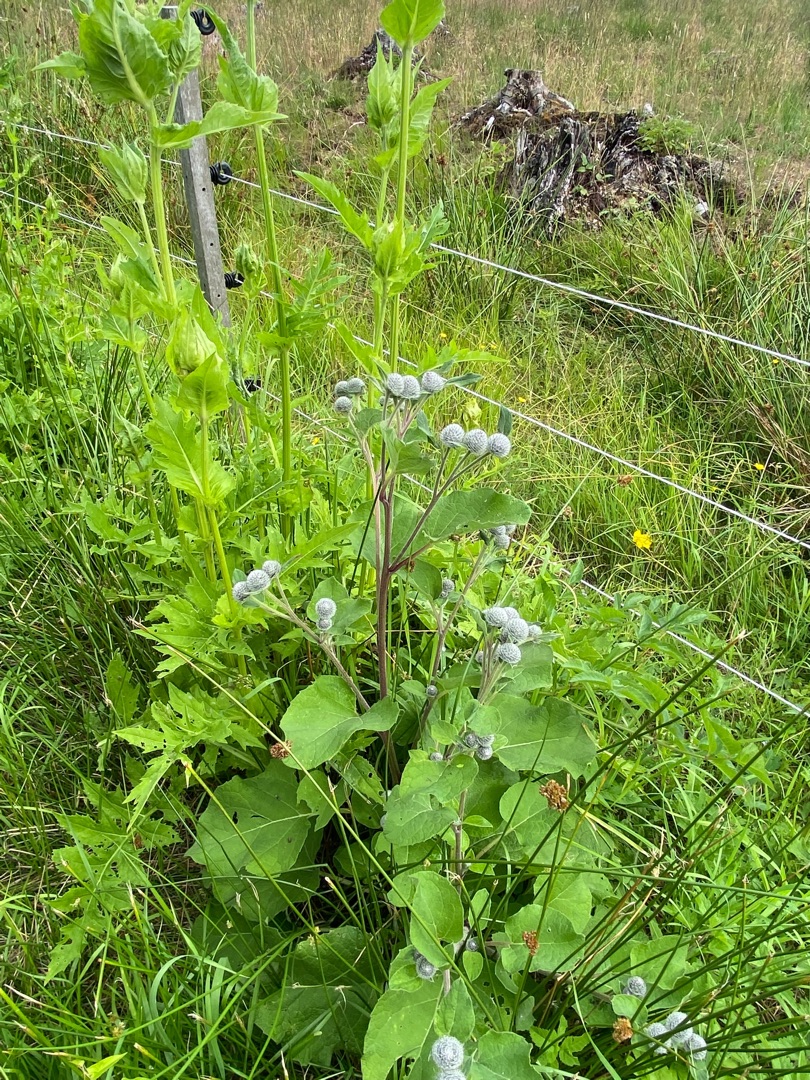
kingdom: Plantae
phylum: Tracheophyta
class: Magnoliopsida
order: Asterales
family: Asteraceae
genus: Arctium
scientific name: Arctium tomentosum
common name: Filtet burre
